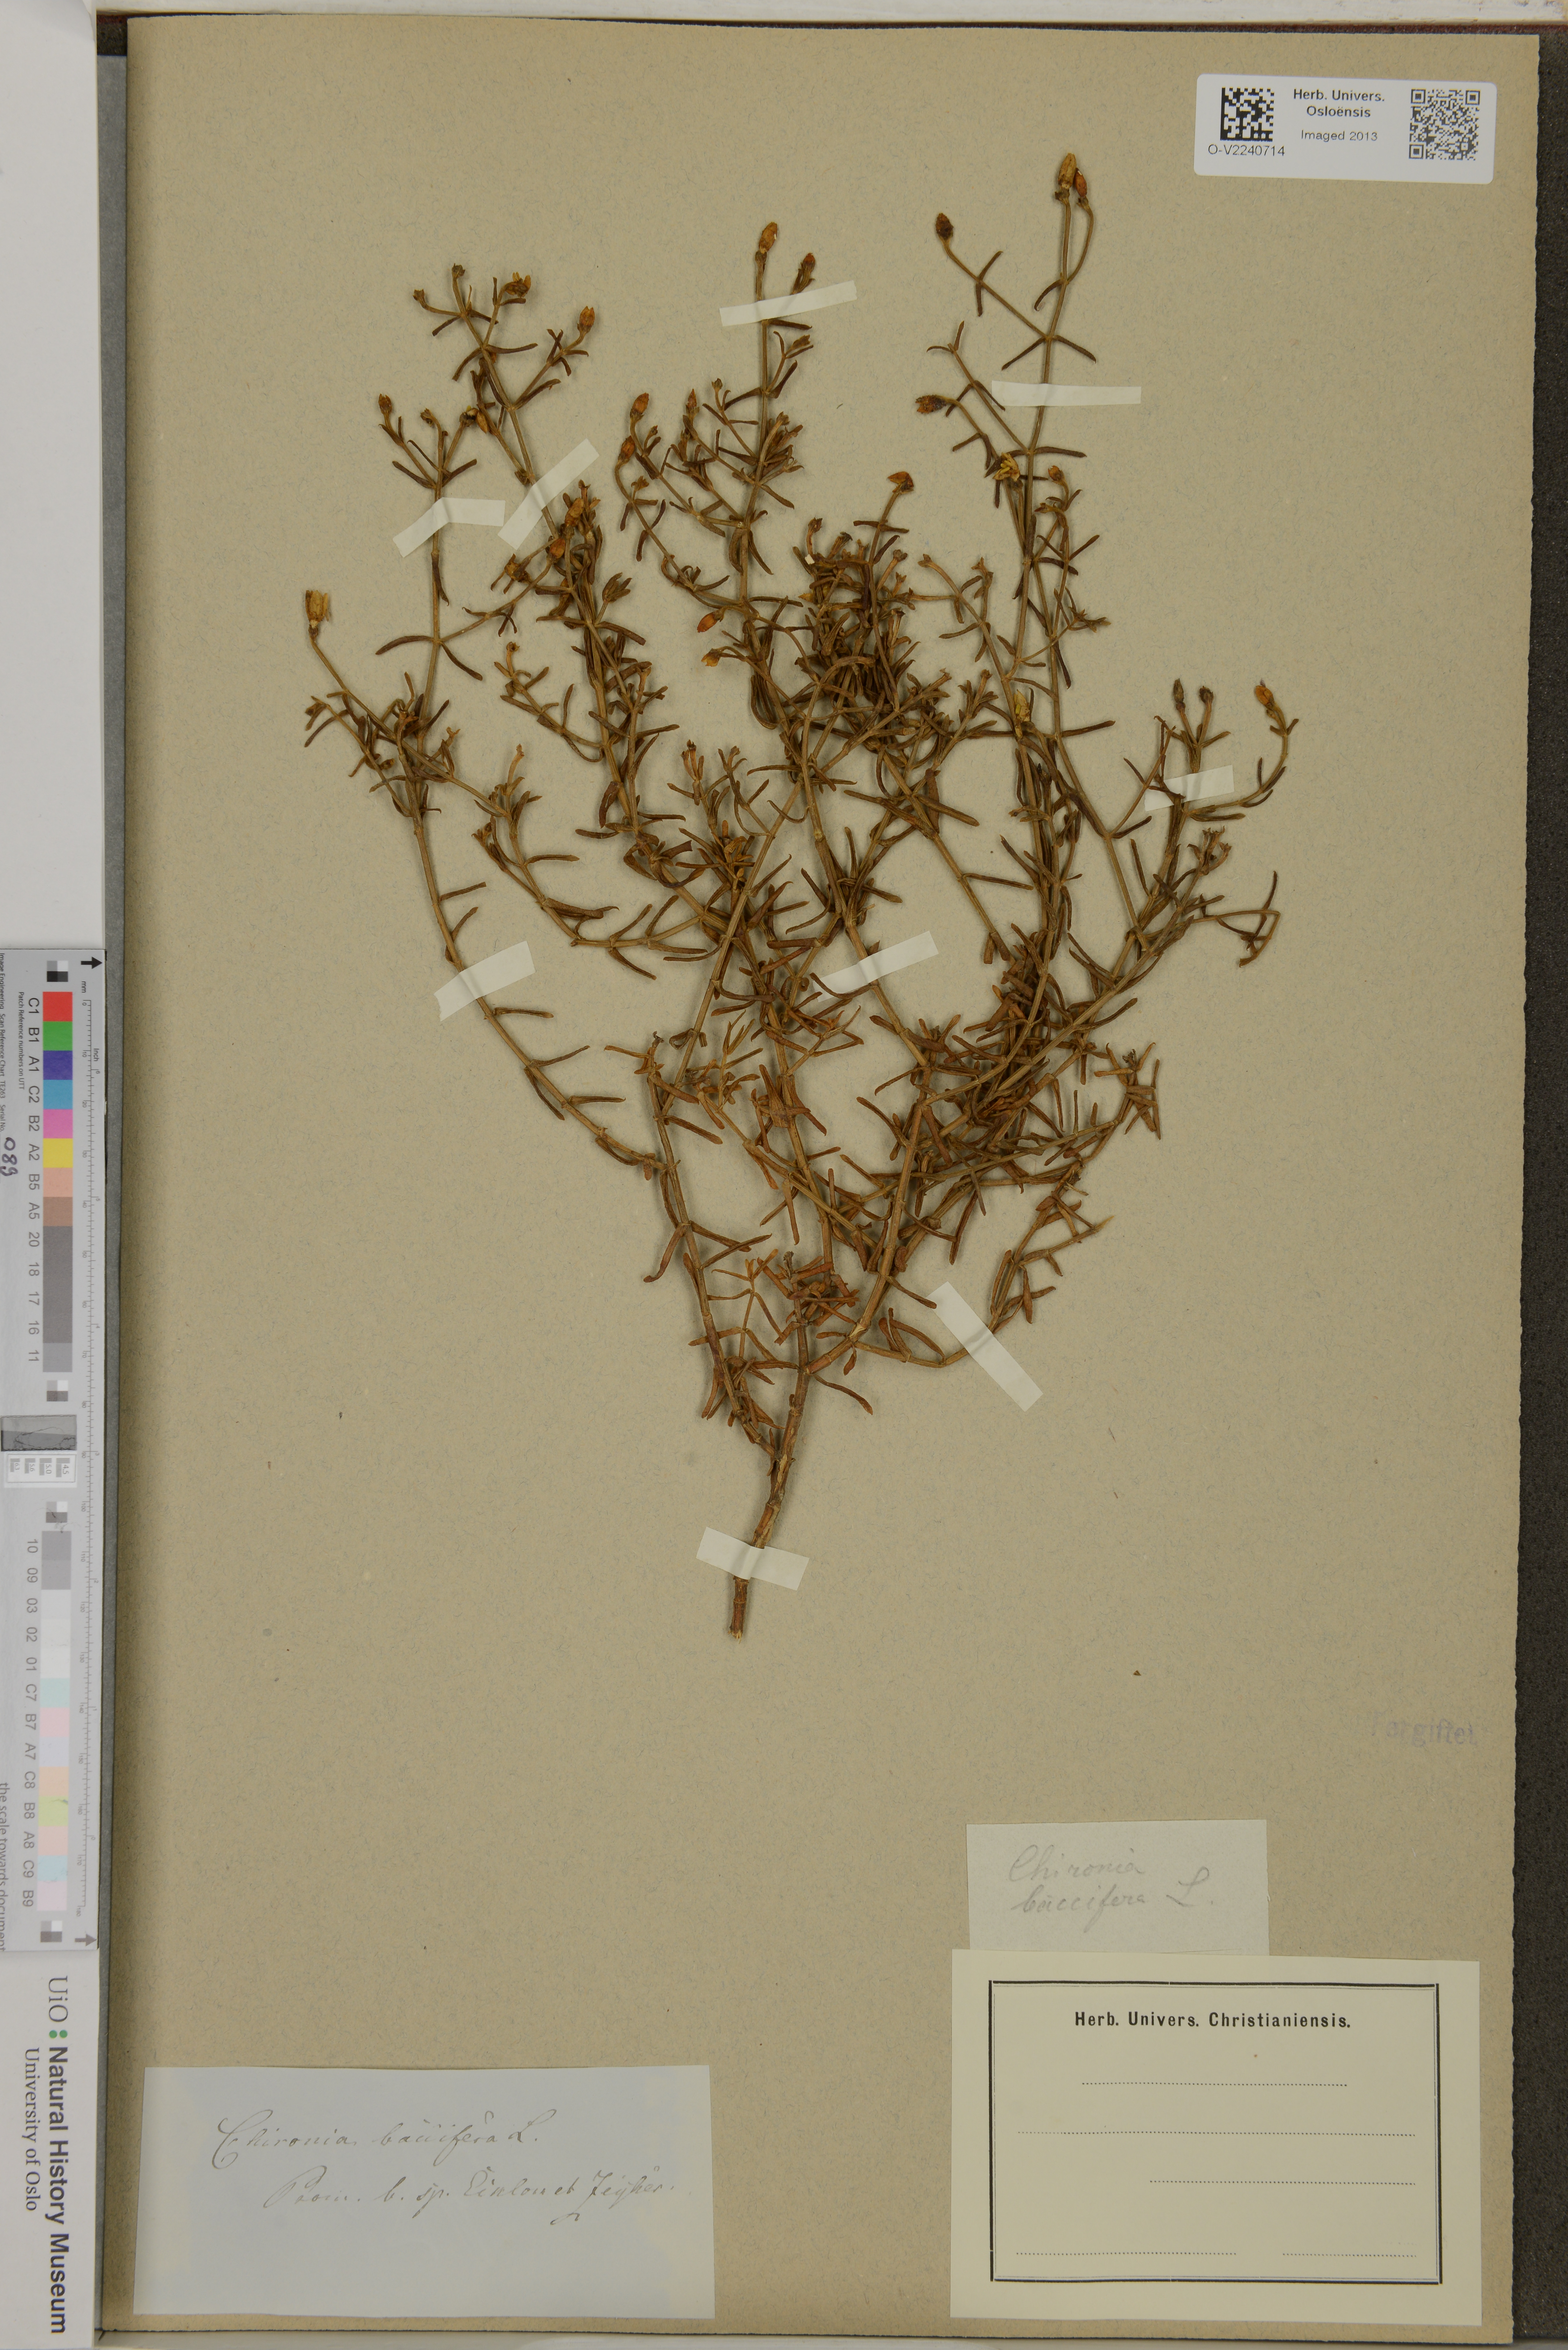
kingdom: Plantae
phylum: Tracheophyta
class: Magnoliopsida
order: Gentianales
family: Gentianaceae
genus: Chironia
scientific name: Chironia baccifera
